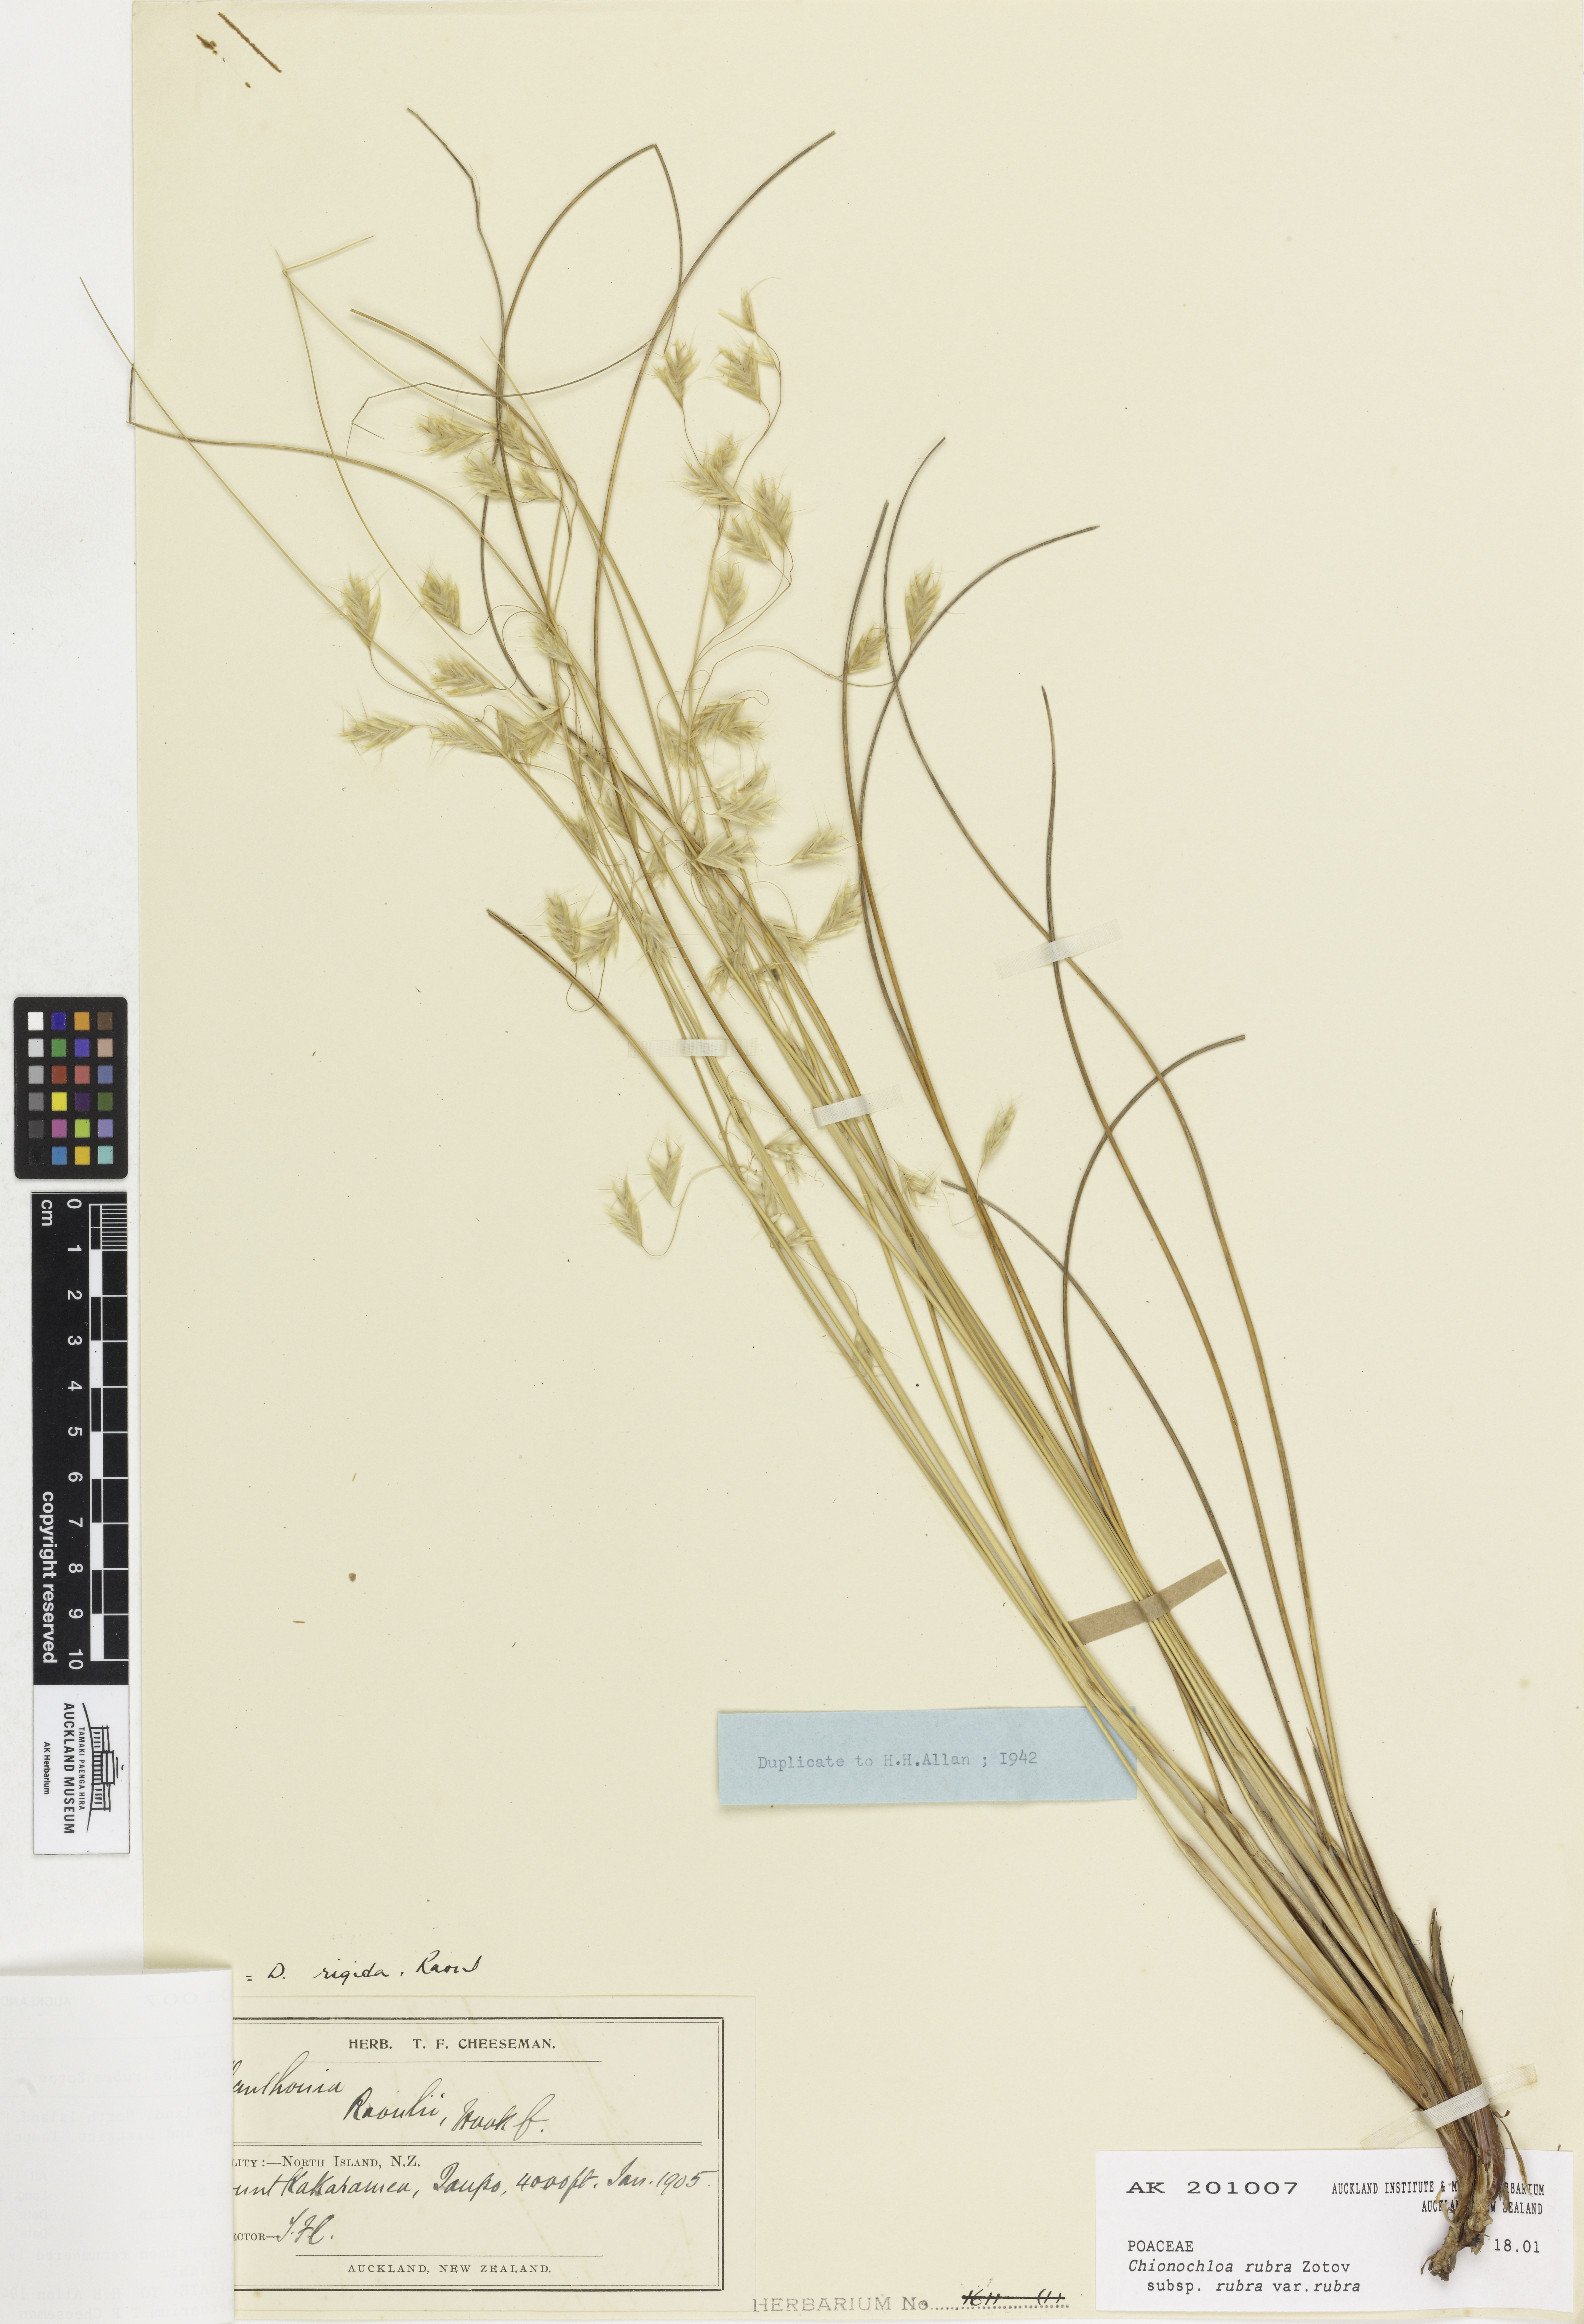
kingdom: Plantae
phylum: Tracheophyta
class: Liliopsida
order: Poales
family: Poaceae
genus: Chionochloa
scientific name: Chionochloa rubra
